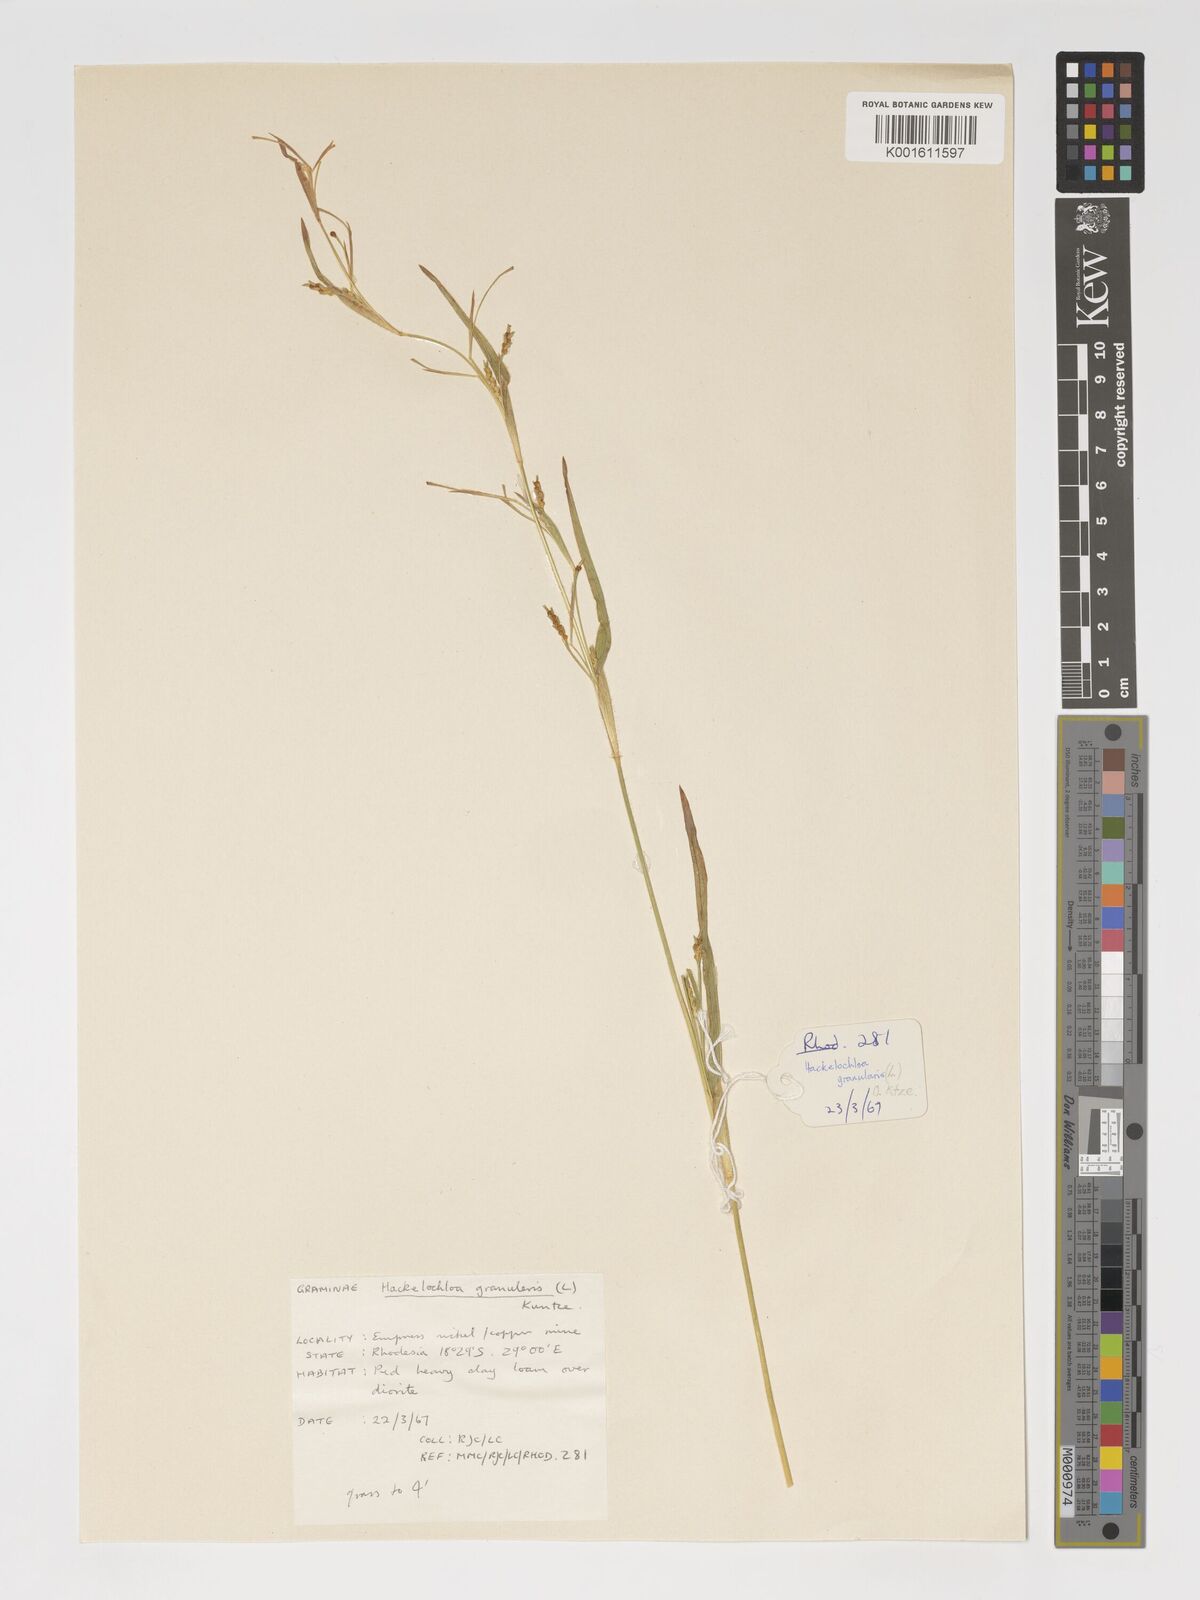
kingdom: Plantae
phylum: Tracheophyta
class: Liliopsida
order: Poales
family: Poaceae
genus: Hackelochloa
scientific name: Hackelochloa granularis
